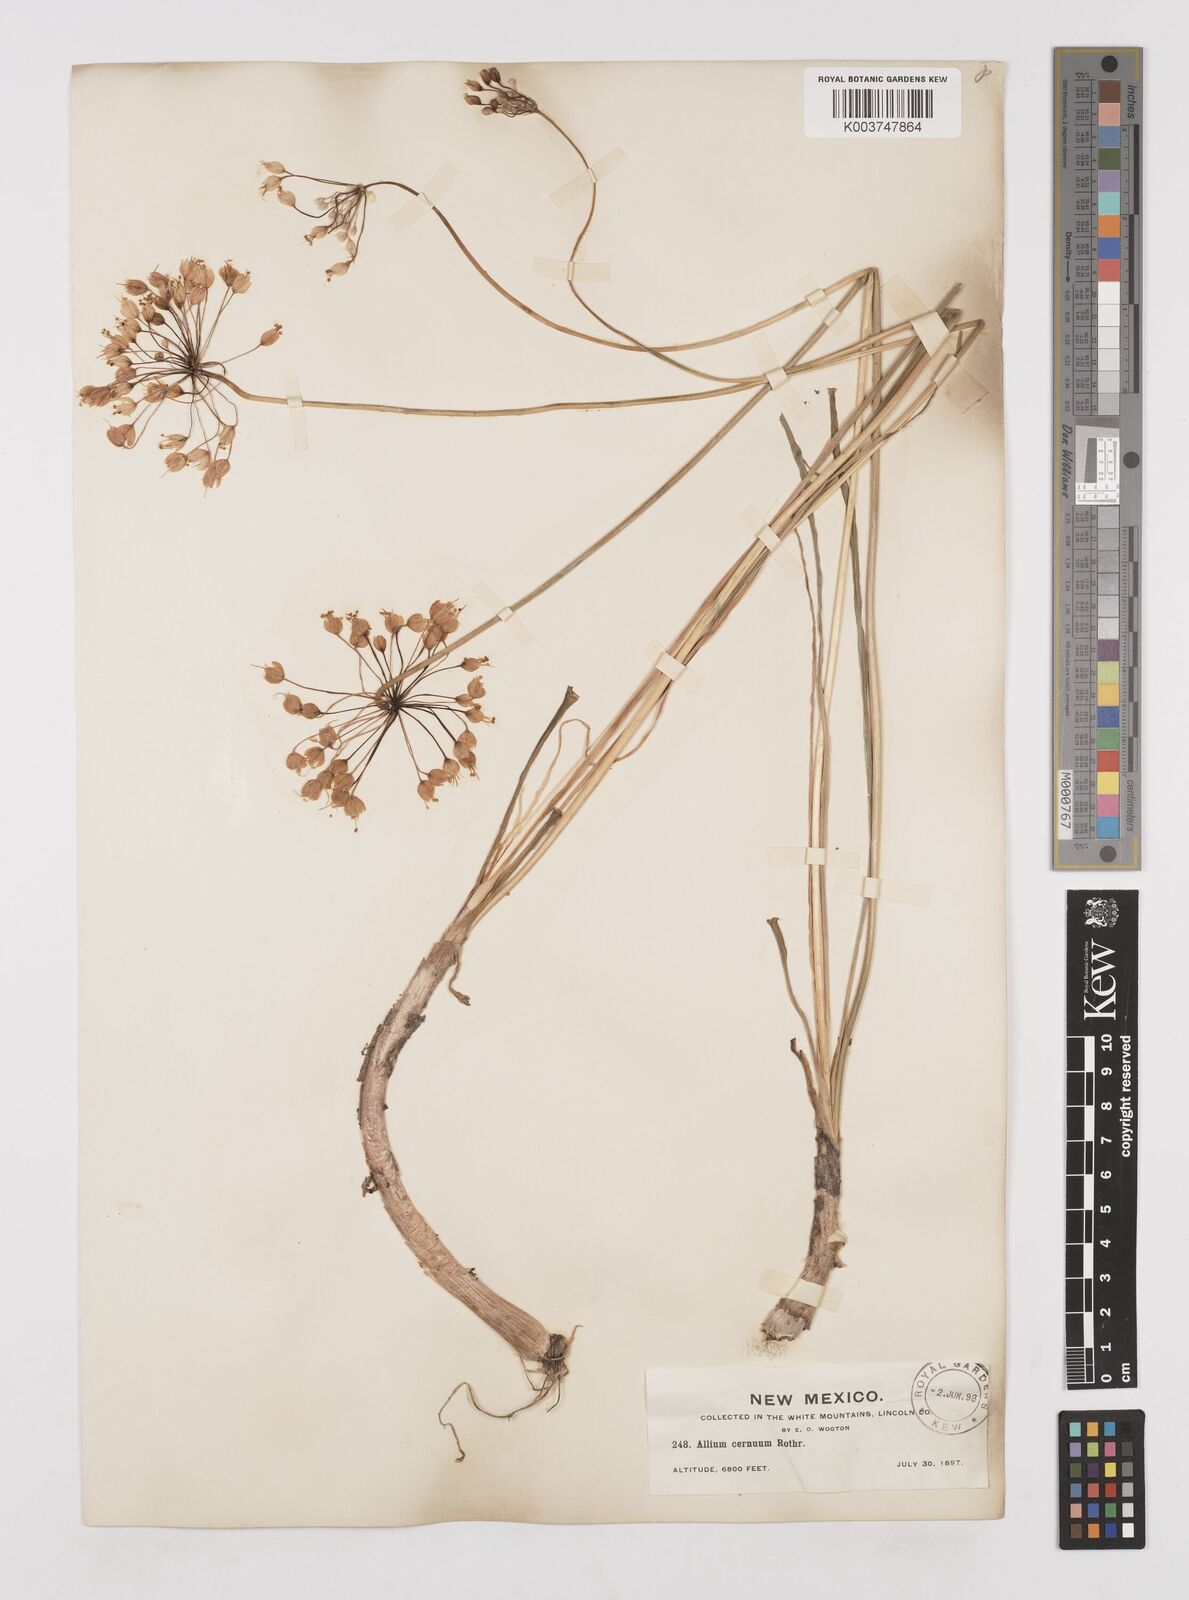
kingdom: Plantae
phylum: Tracheophyta
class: Liliopsida
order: Asparagales
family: Amaryllidaceae
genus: Allium
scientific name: Allium cernuum
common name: Nodding onion
